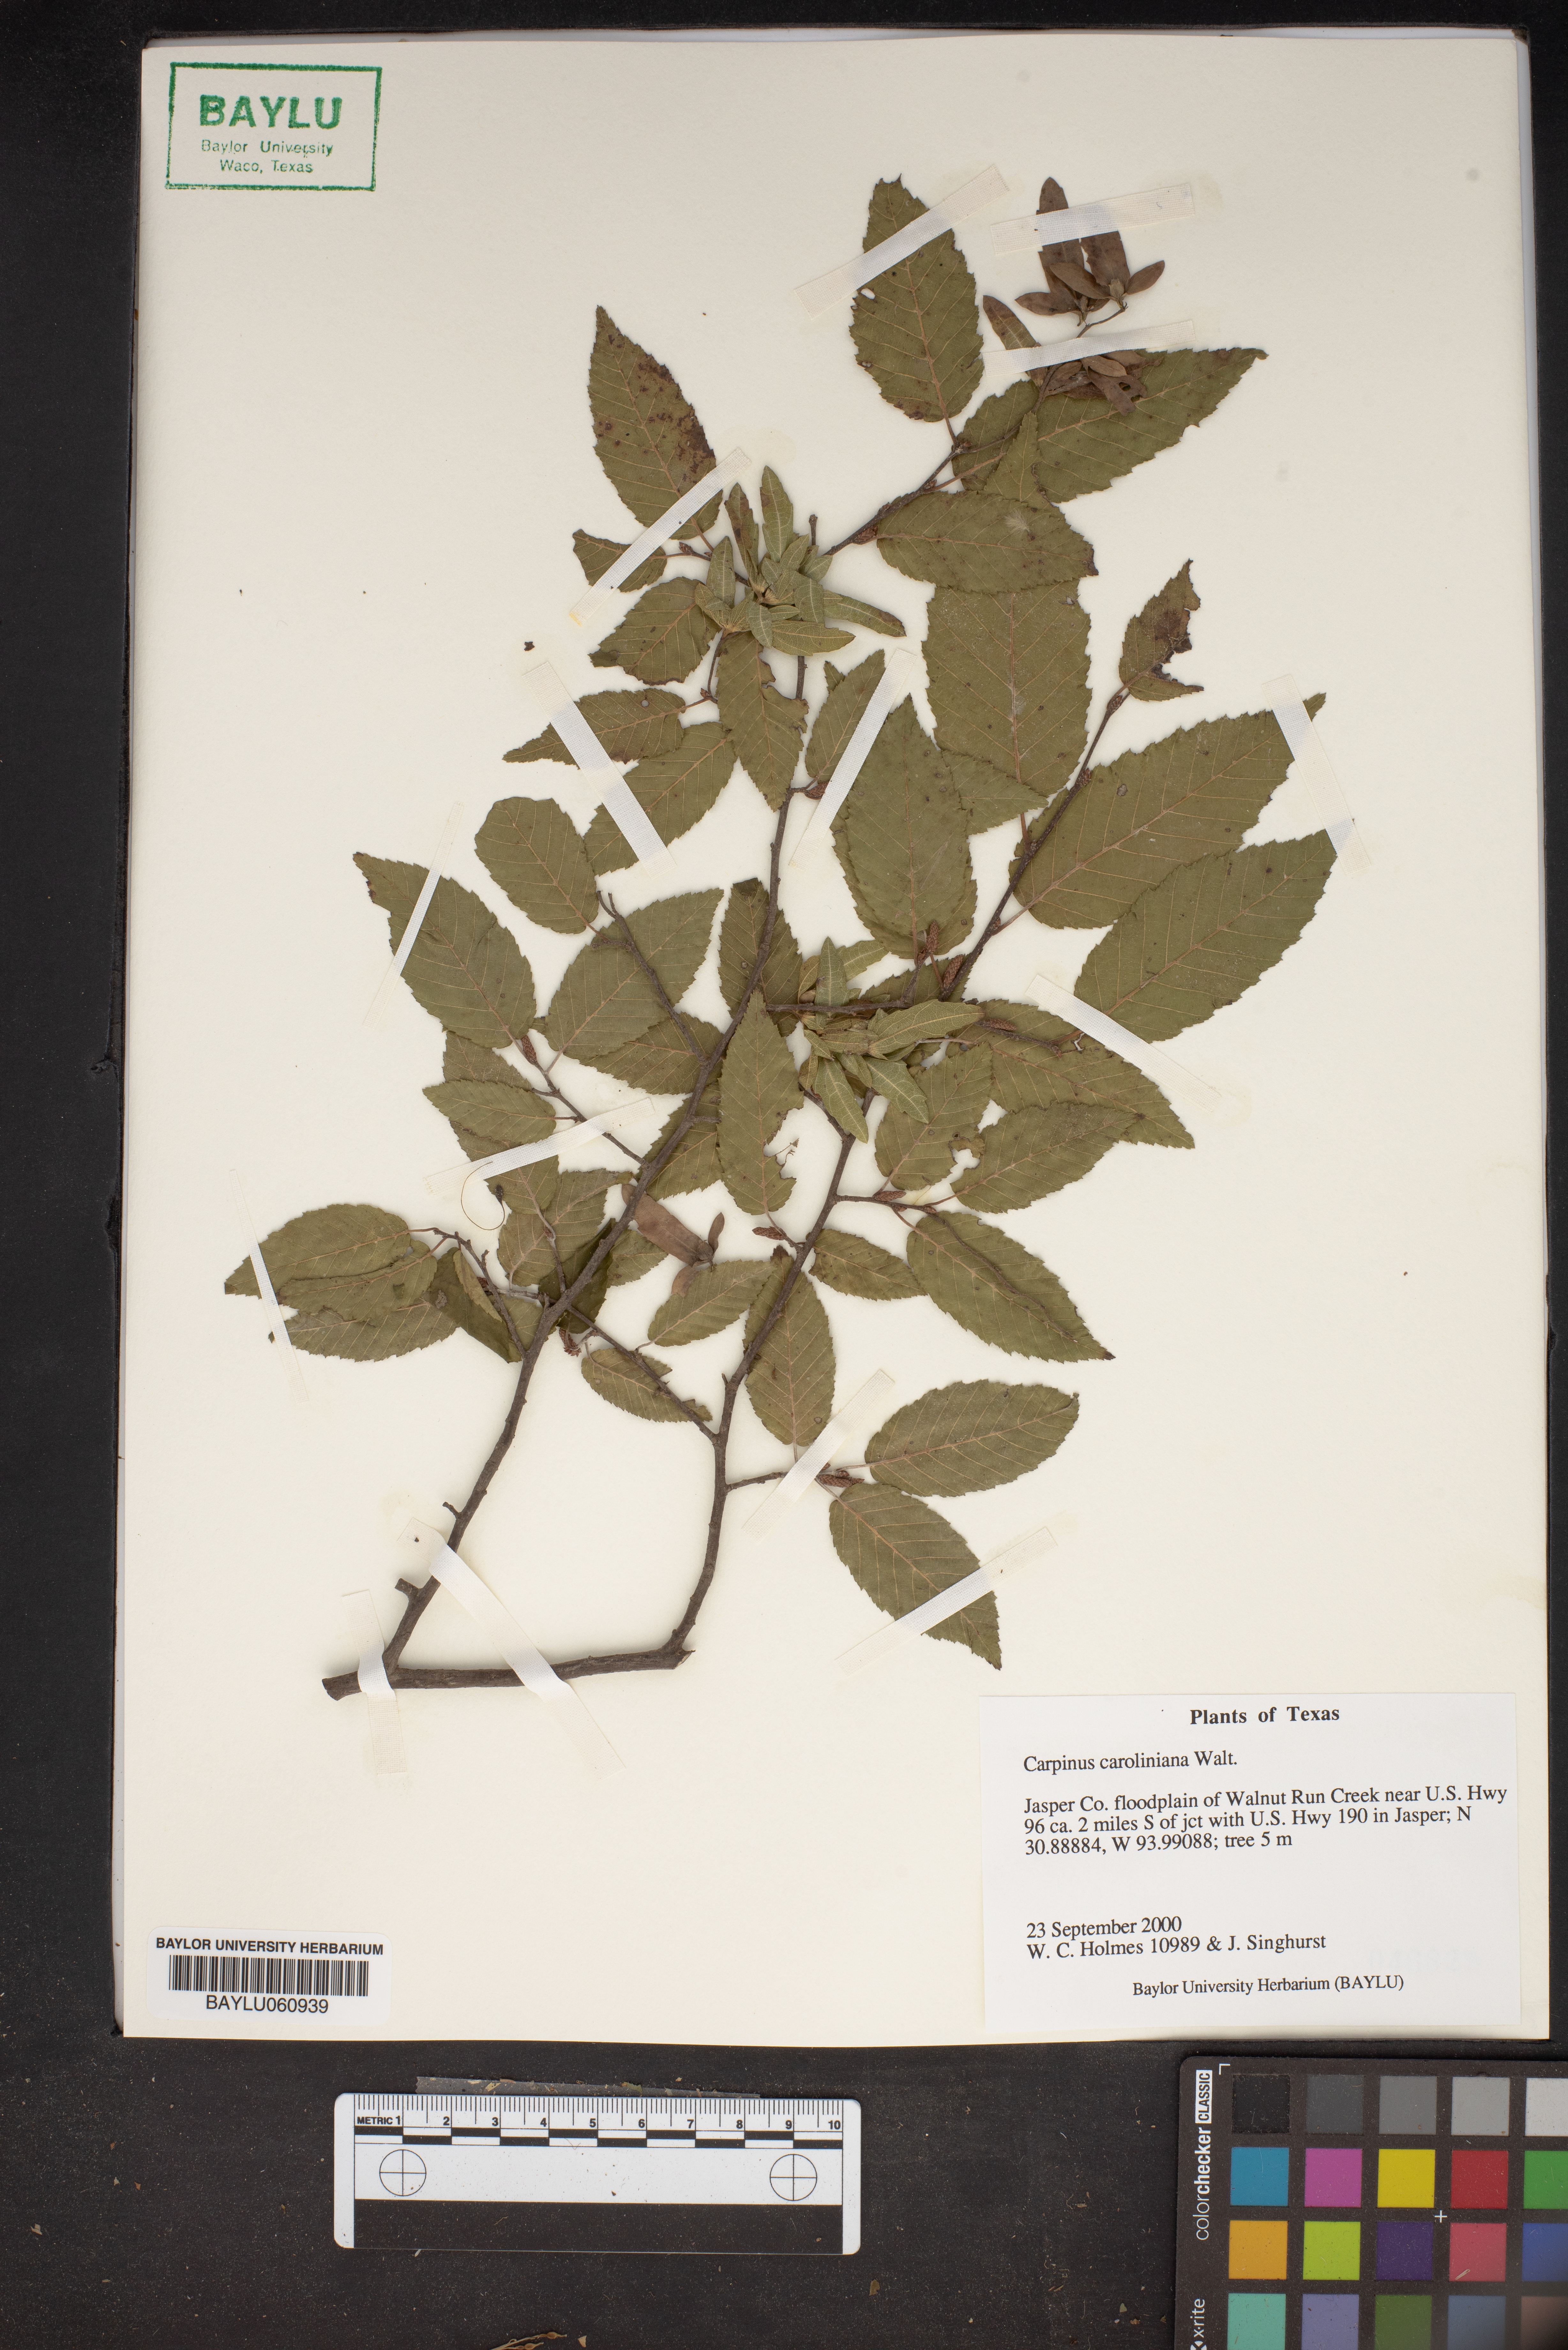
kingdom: Plantae
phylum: Tracheophyta
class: Magnoliopsida
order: Fagales
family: Betulaceae
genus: Carpinus
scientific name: Carpinus caroliniana
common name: American hornbeam
